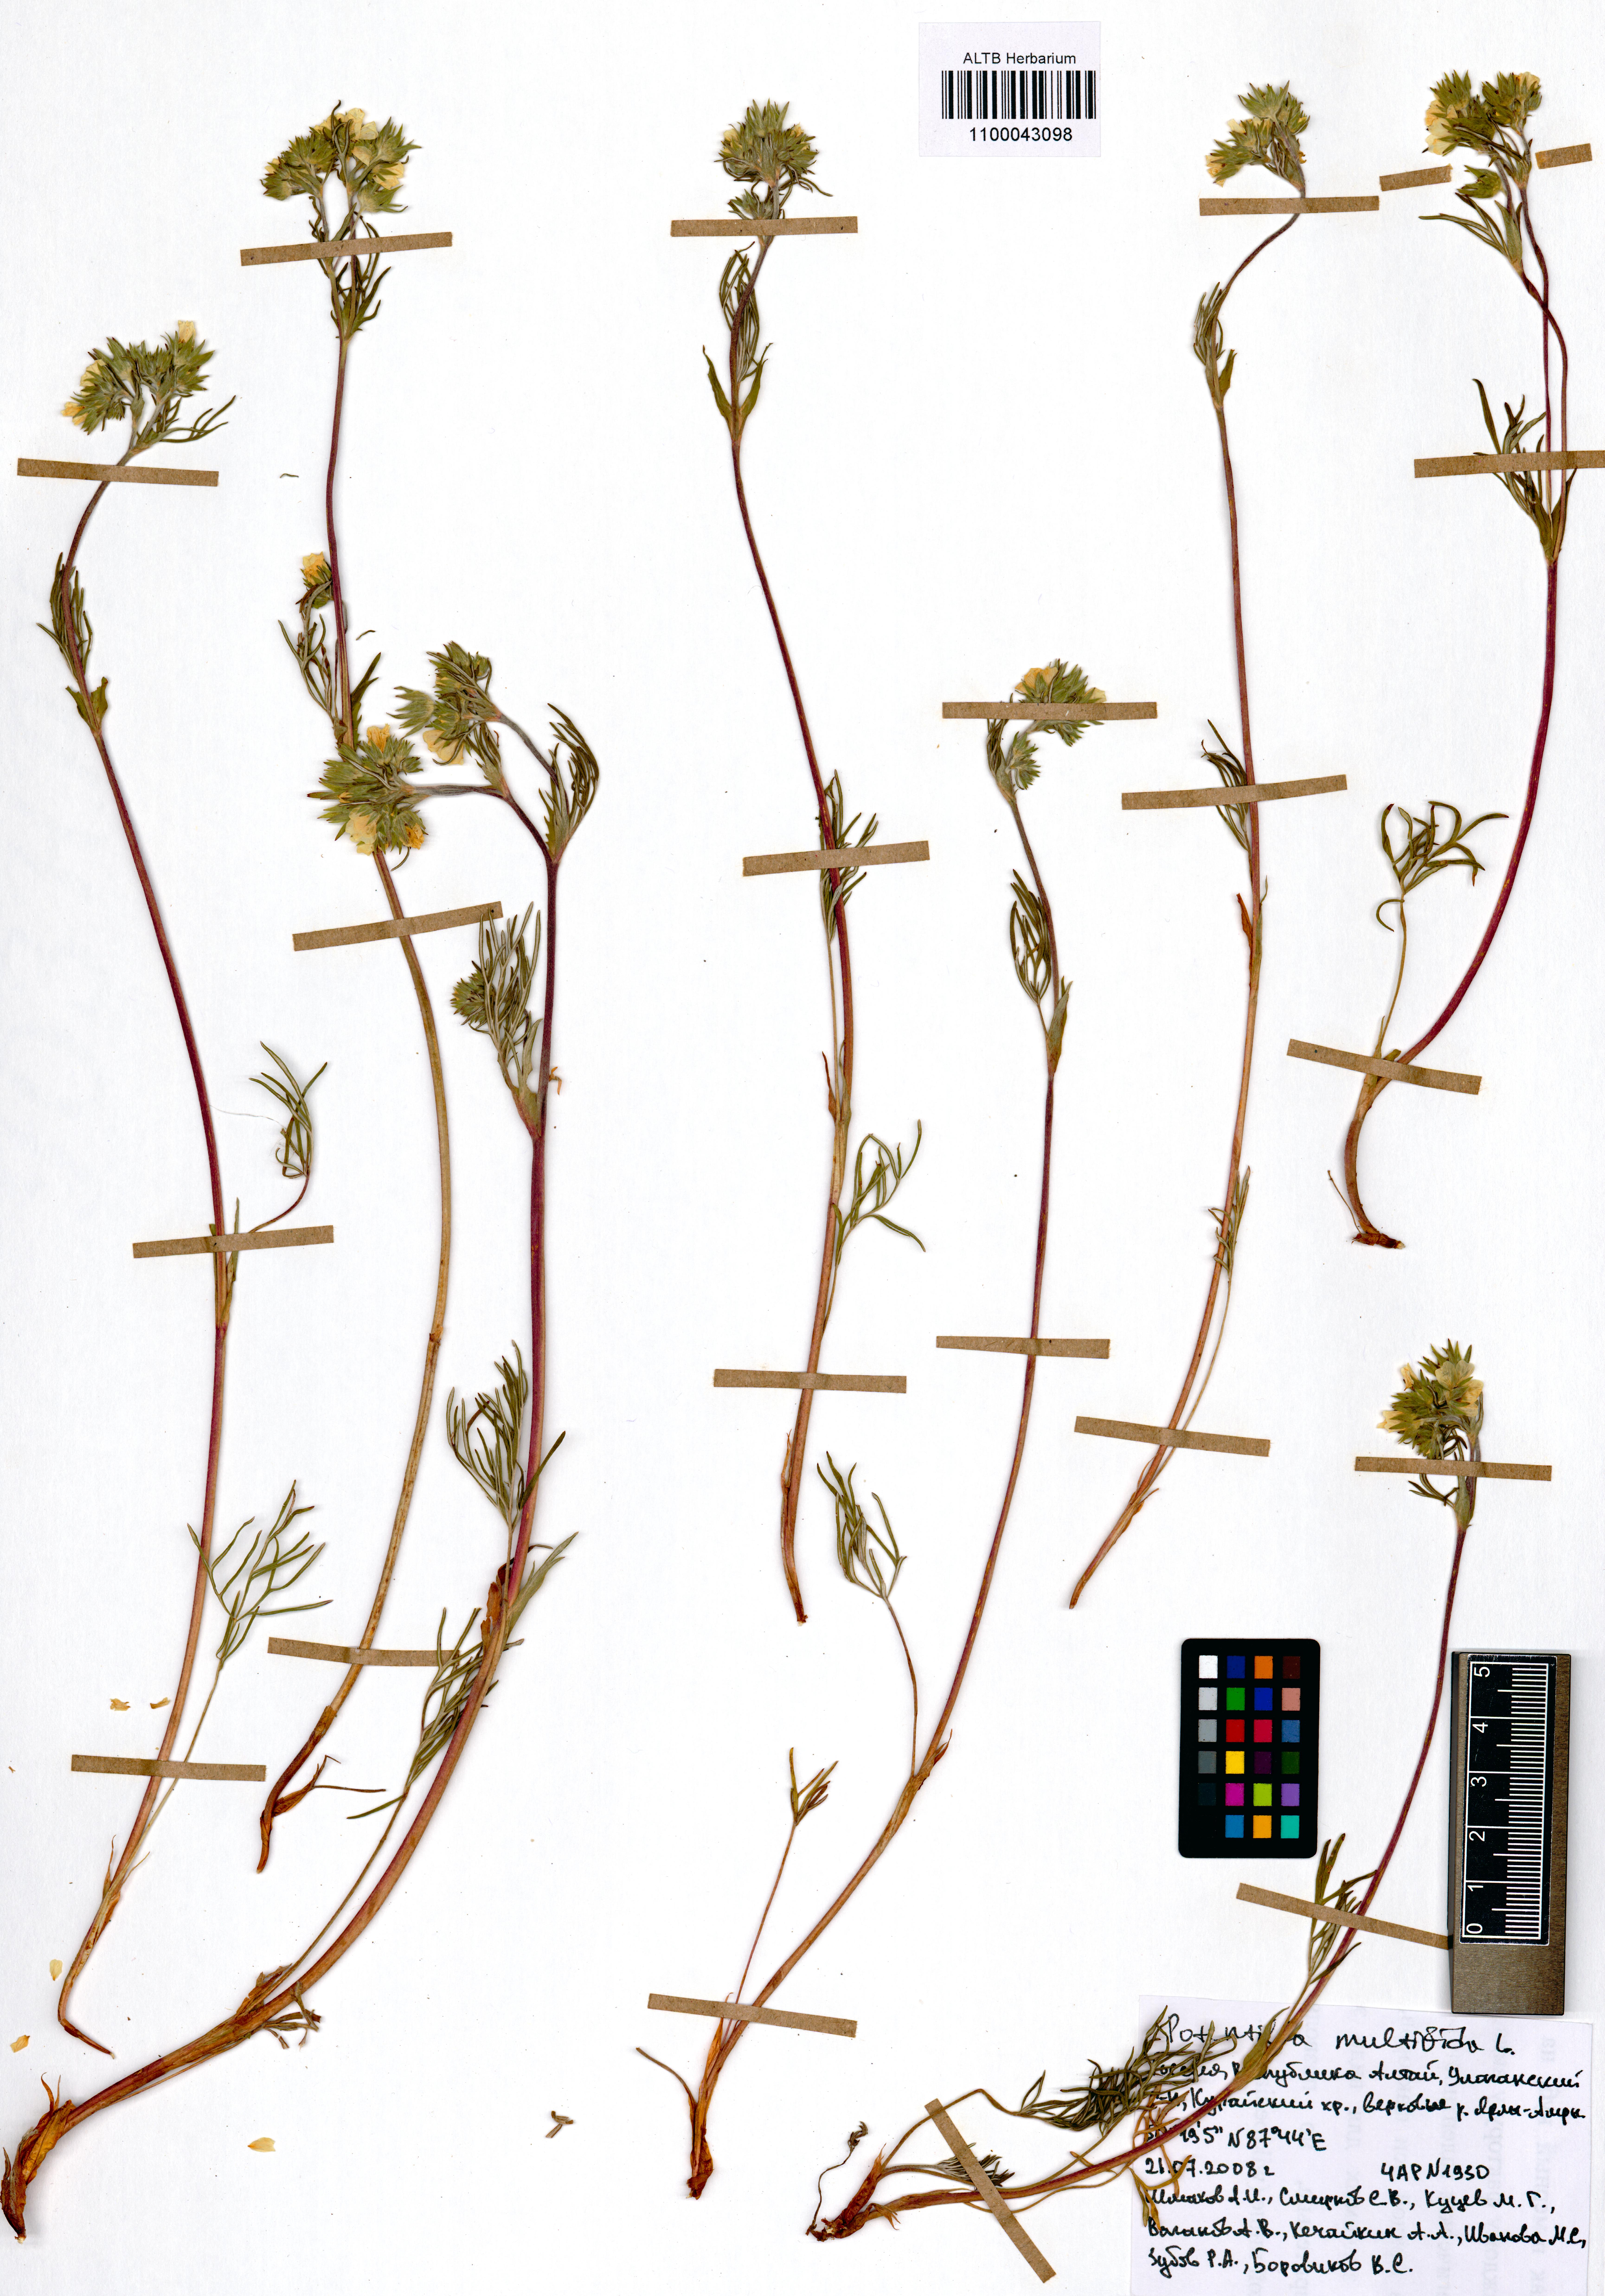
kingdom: Plantae
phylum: Tracheophyta
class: Magnoliopsida
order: Rosales
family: Rosaceae
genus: Potentilla
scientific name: Potentilla multifida
